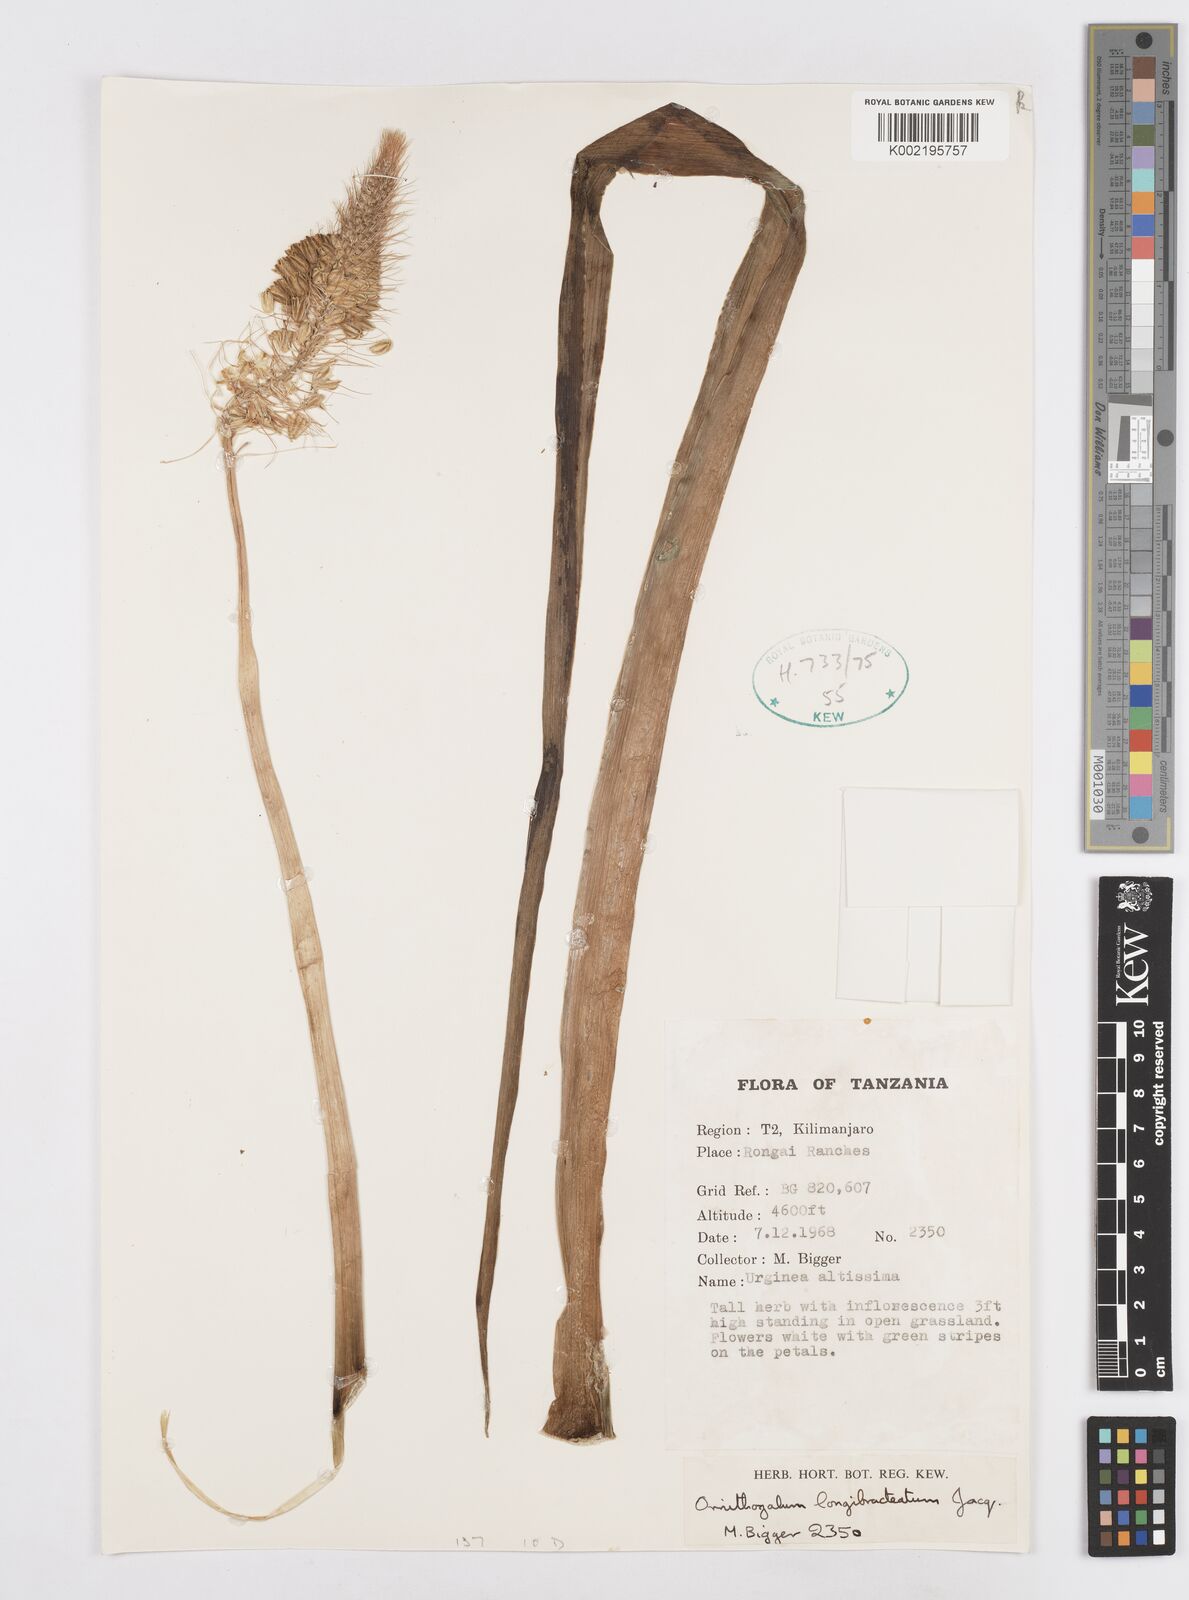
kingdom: Plantae
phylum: Tracheophyta
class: Liliopsida
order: Asparagales
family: Asparagaceae
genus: Ornithogalum
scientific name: Ornithogalum
